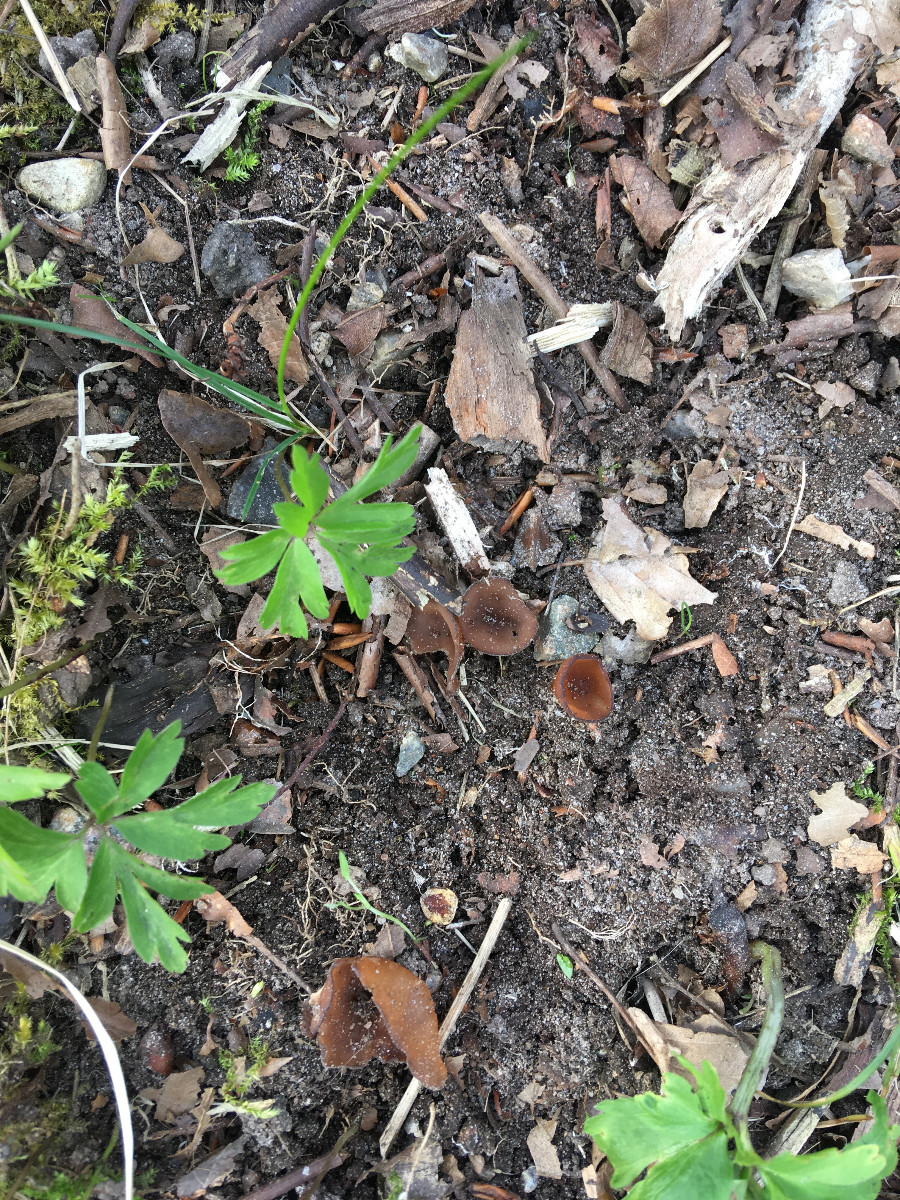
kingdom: Fungi
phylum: Ascomycota
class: Leotiomycetes
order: Helotiales
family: Sclerotiniaceae
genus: Dumontinia
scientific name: Dumontinia tuberosa
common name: anemone-knoldskive
